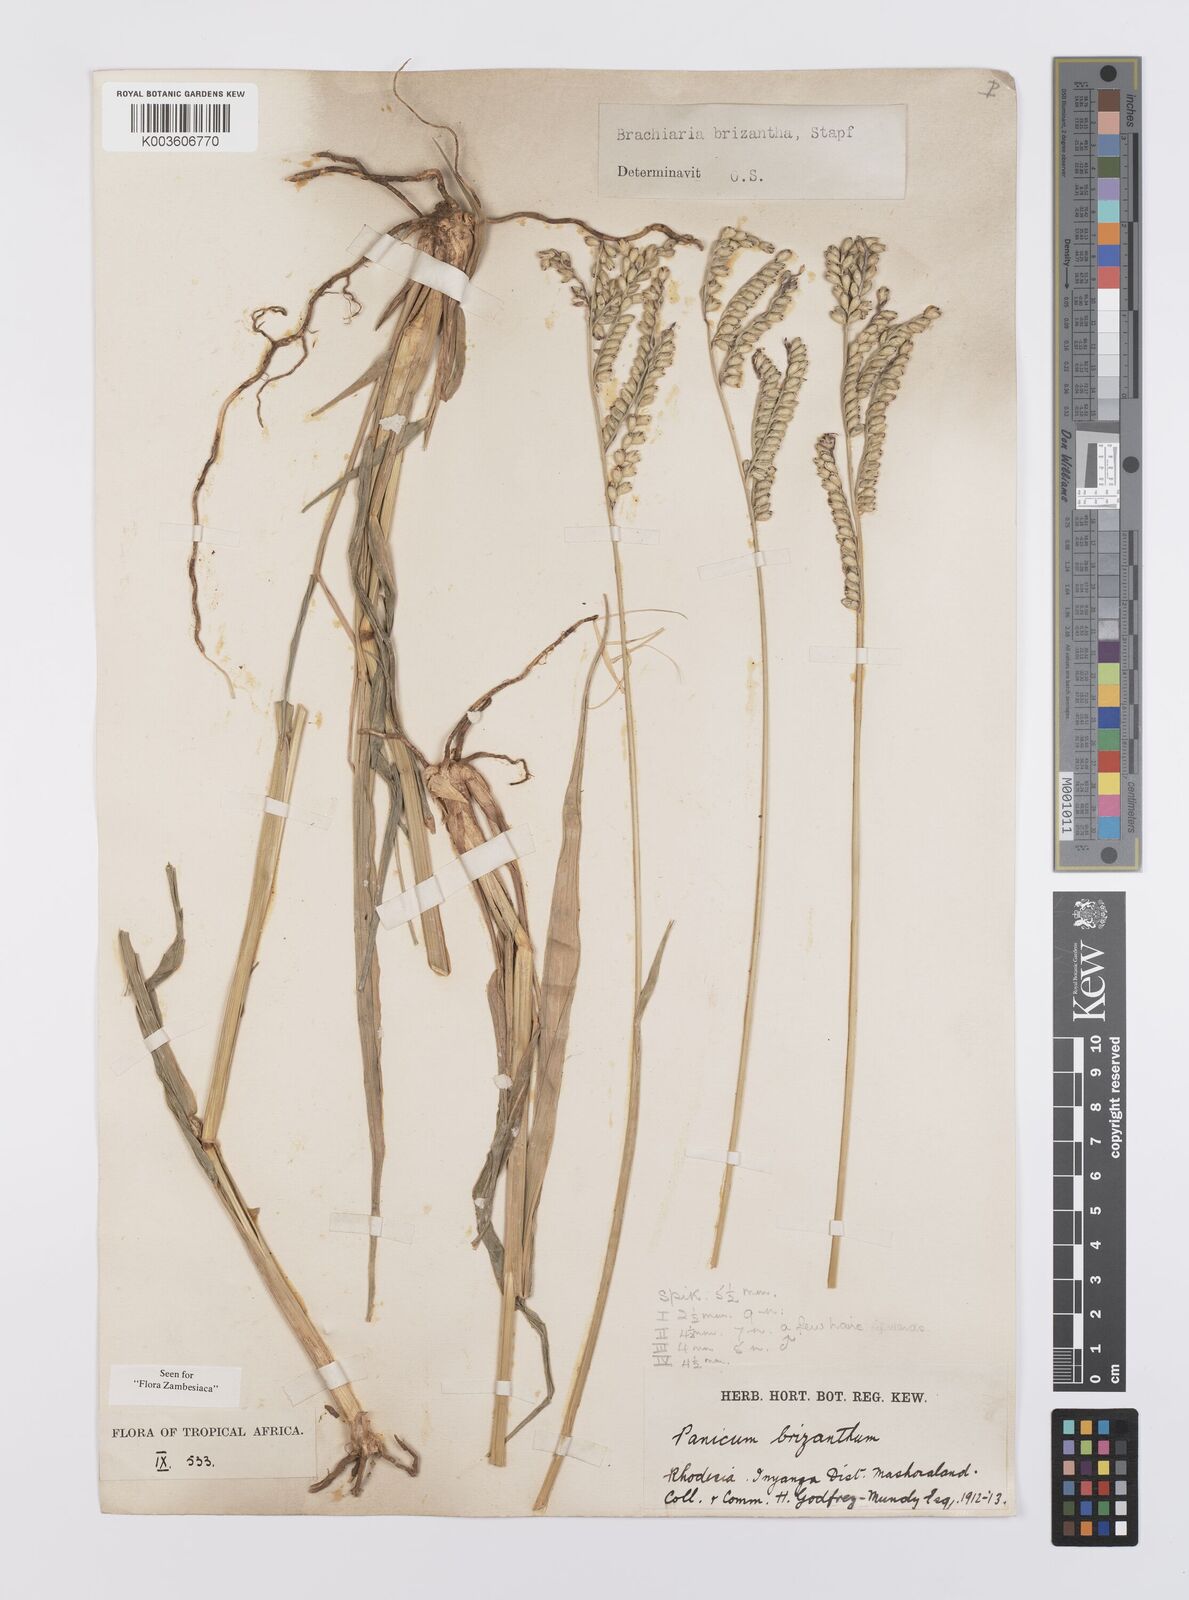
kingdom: Plantae
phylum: Tracheophyta
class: Liliopsida
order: Poales
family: Poaceae
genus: Urochloa
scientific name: Urochloa brizantha
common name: Palisade signalgrass
